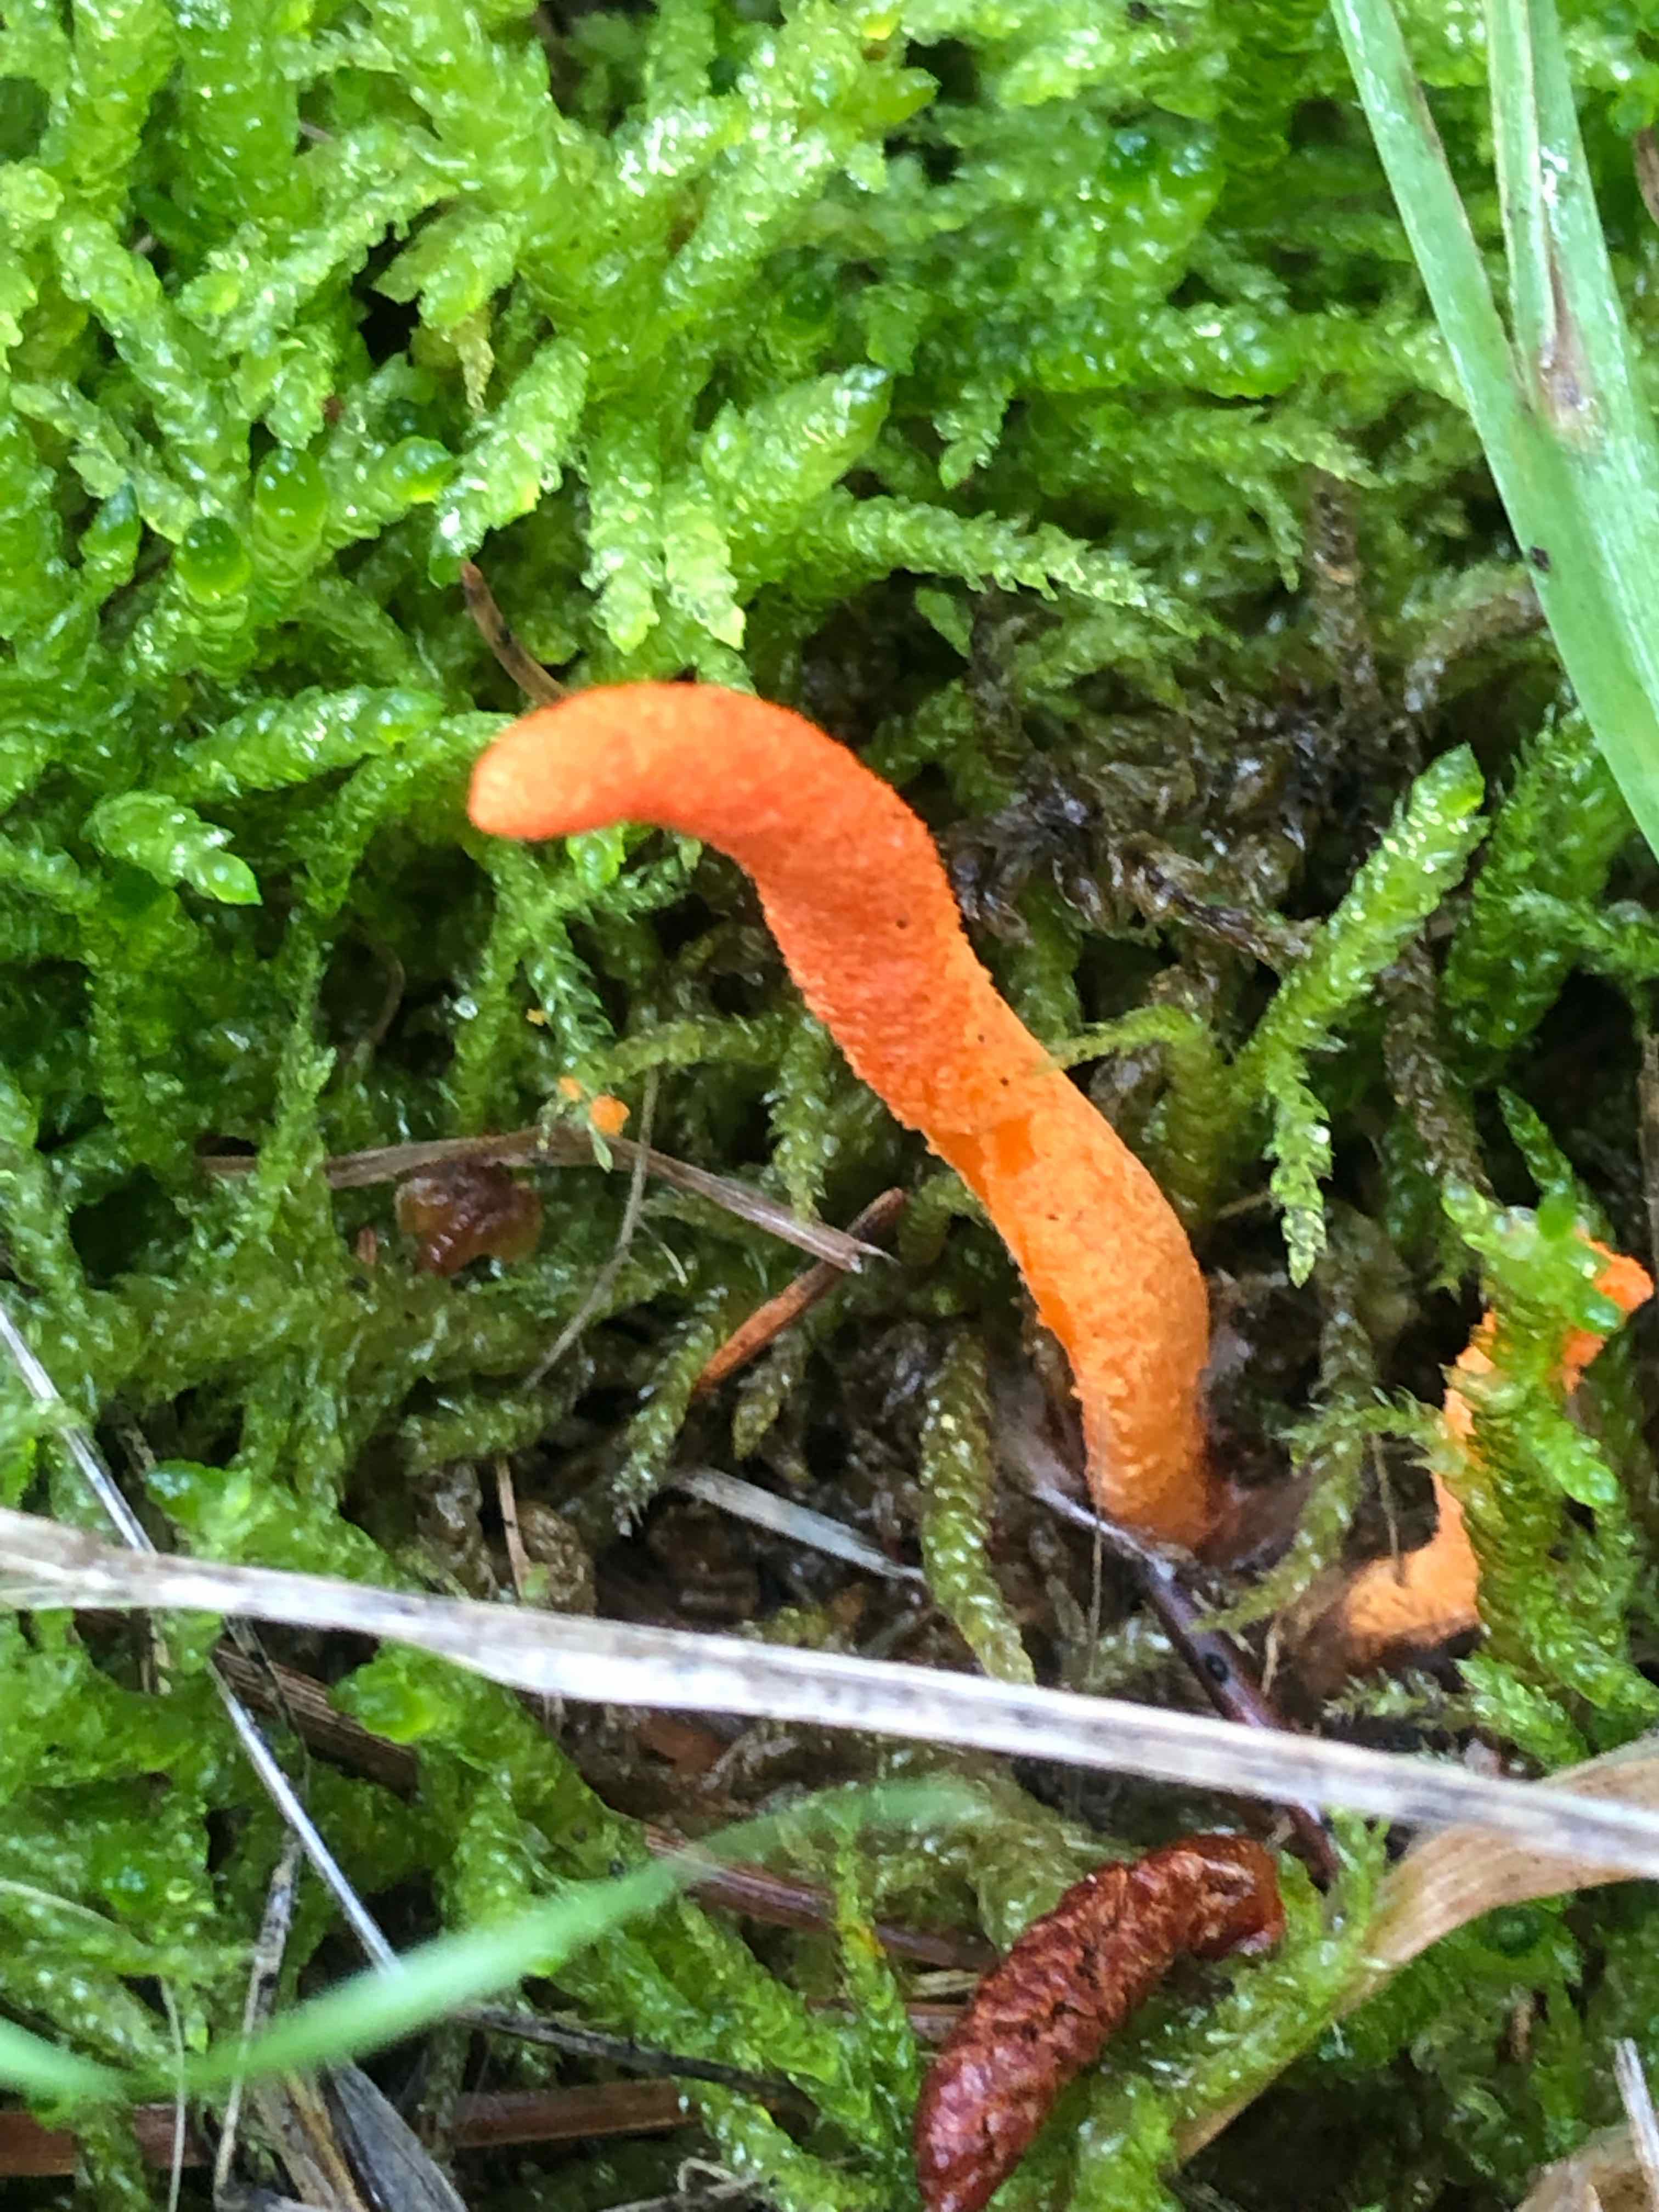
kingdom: Fungi
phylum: Ascomycota
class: Sordariomycetes
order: Hypocreales
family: Cordycipitaceae
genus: Cordyceps
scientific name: Cordyceps militaris
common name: puppe-snyltekølle
